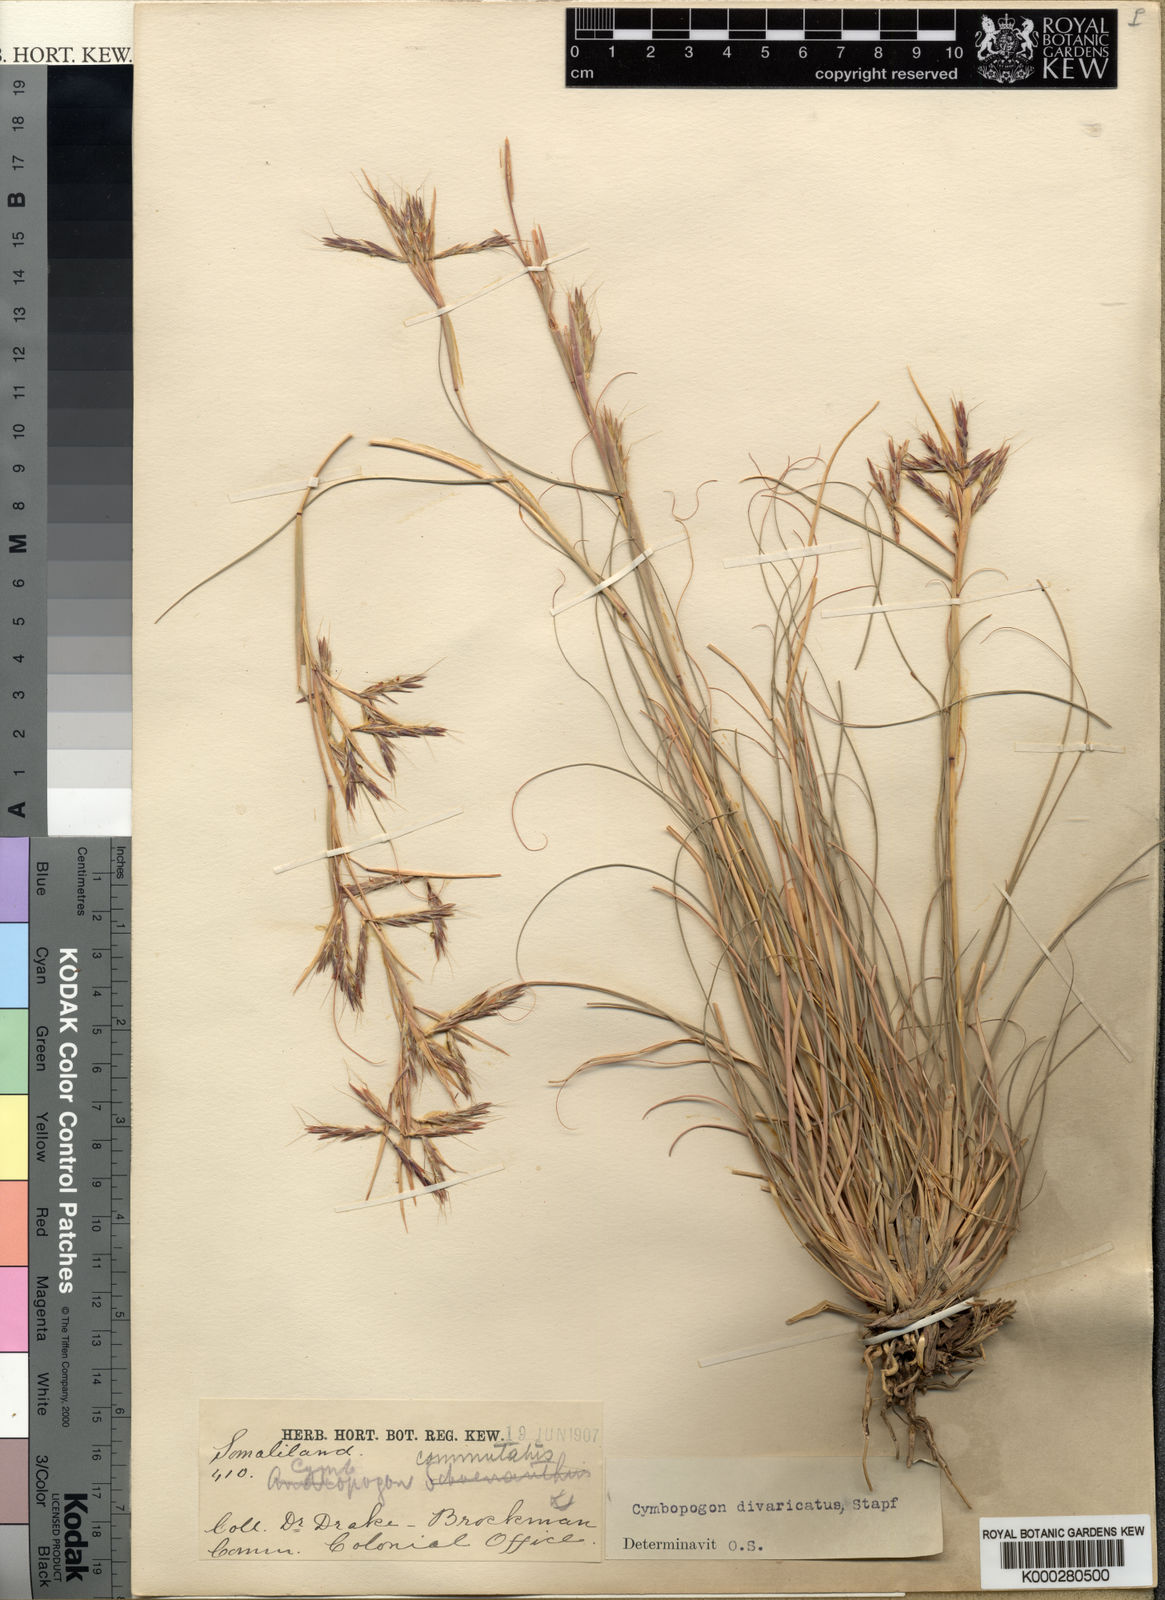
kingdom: Plantae
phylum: Tracheophyta
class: Liliopsida
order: Poales
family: Poaceae
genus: Cymbopogon
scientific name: Cymbopogon commutatus
